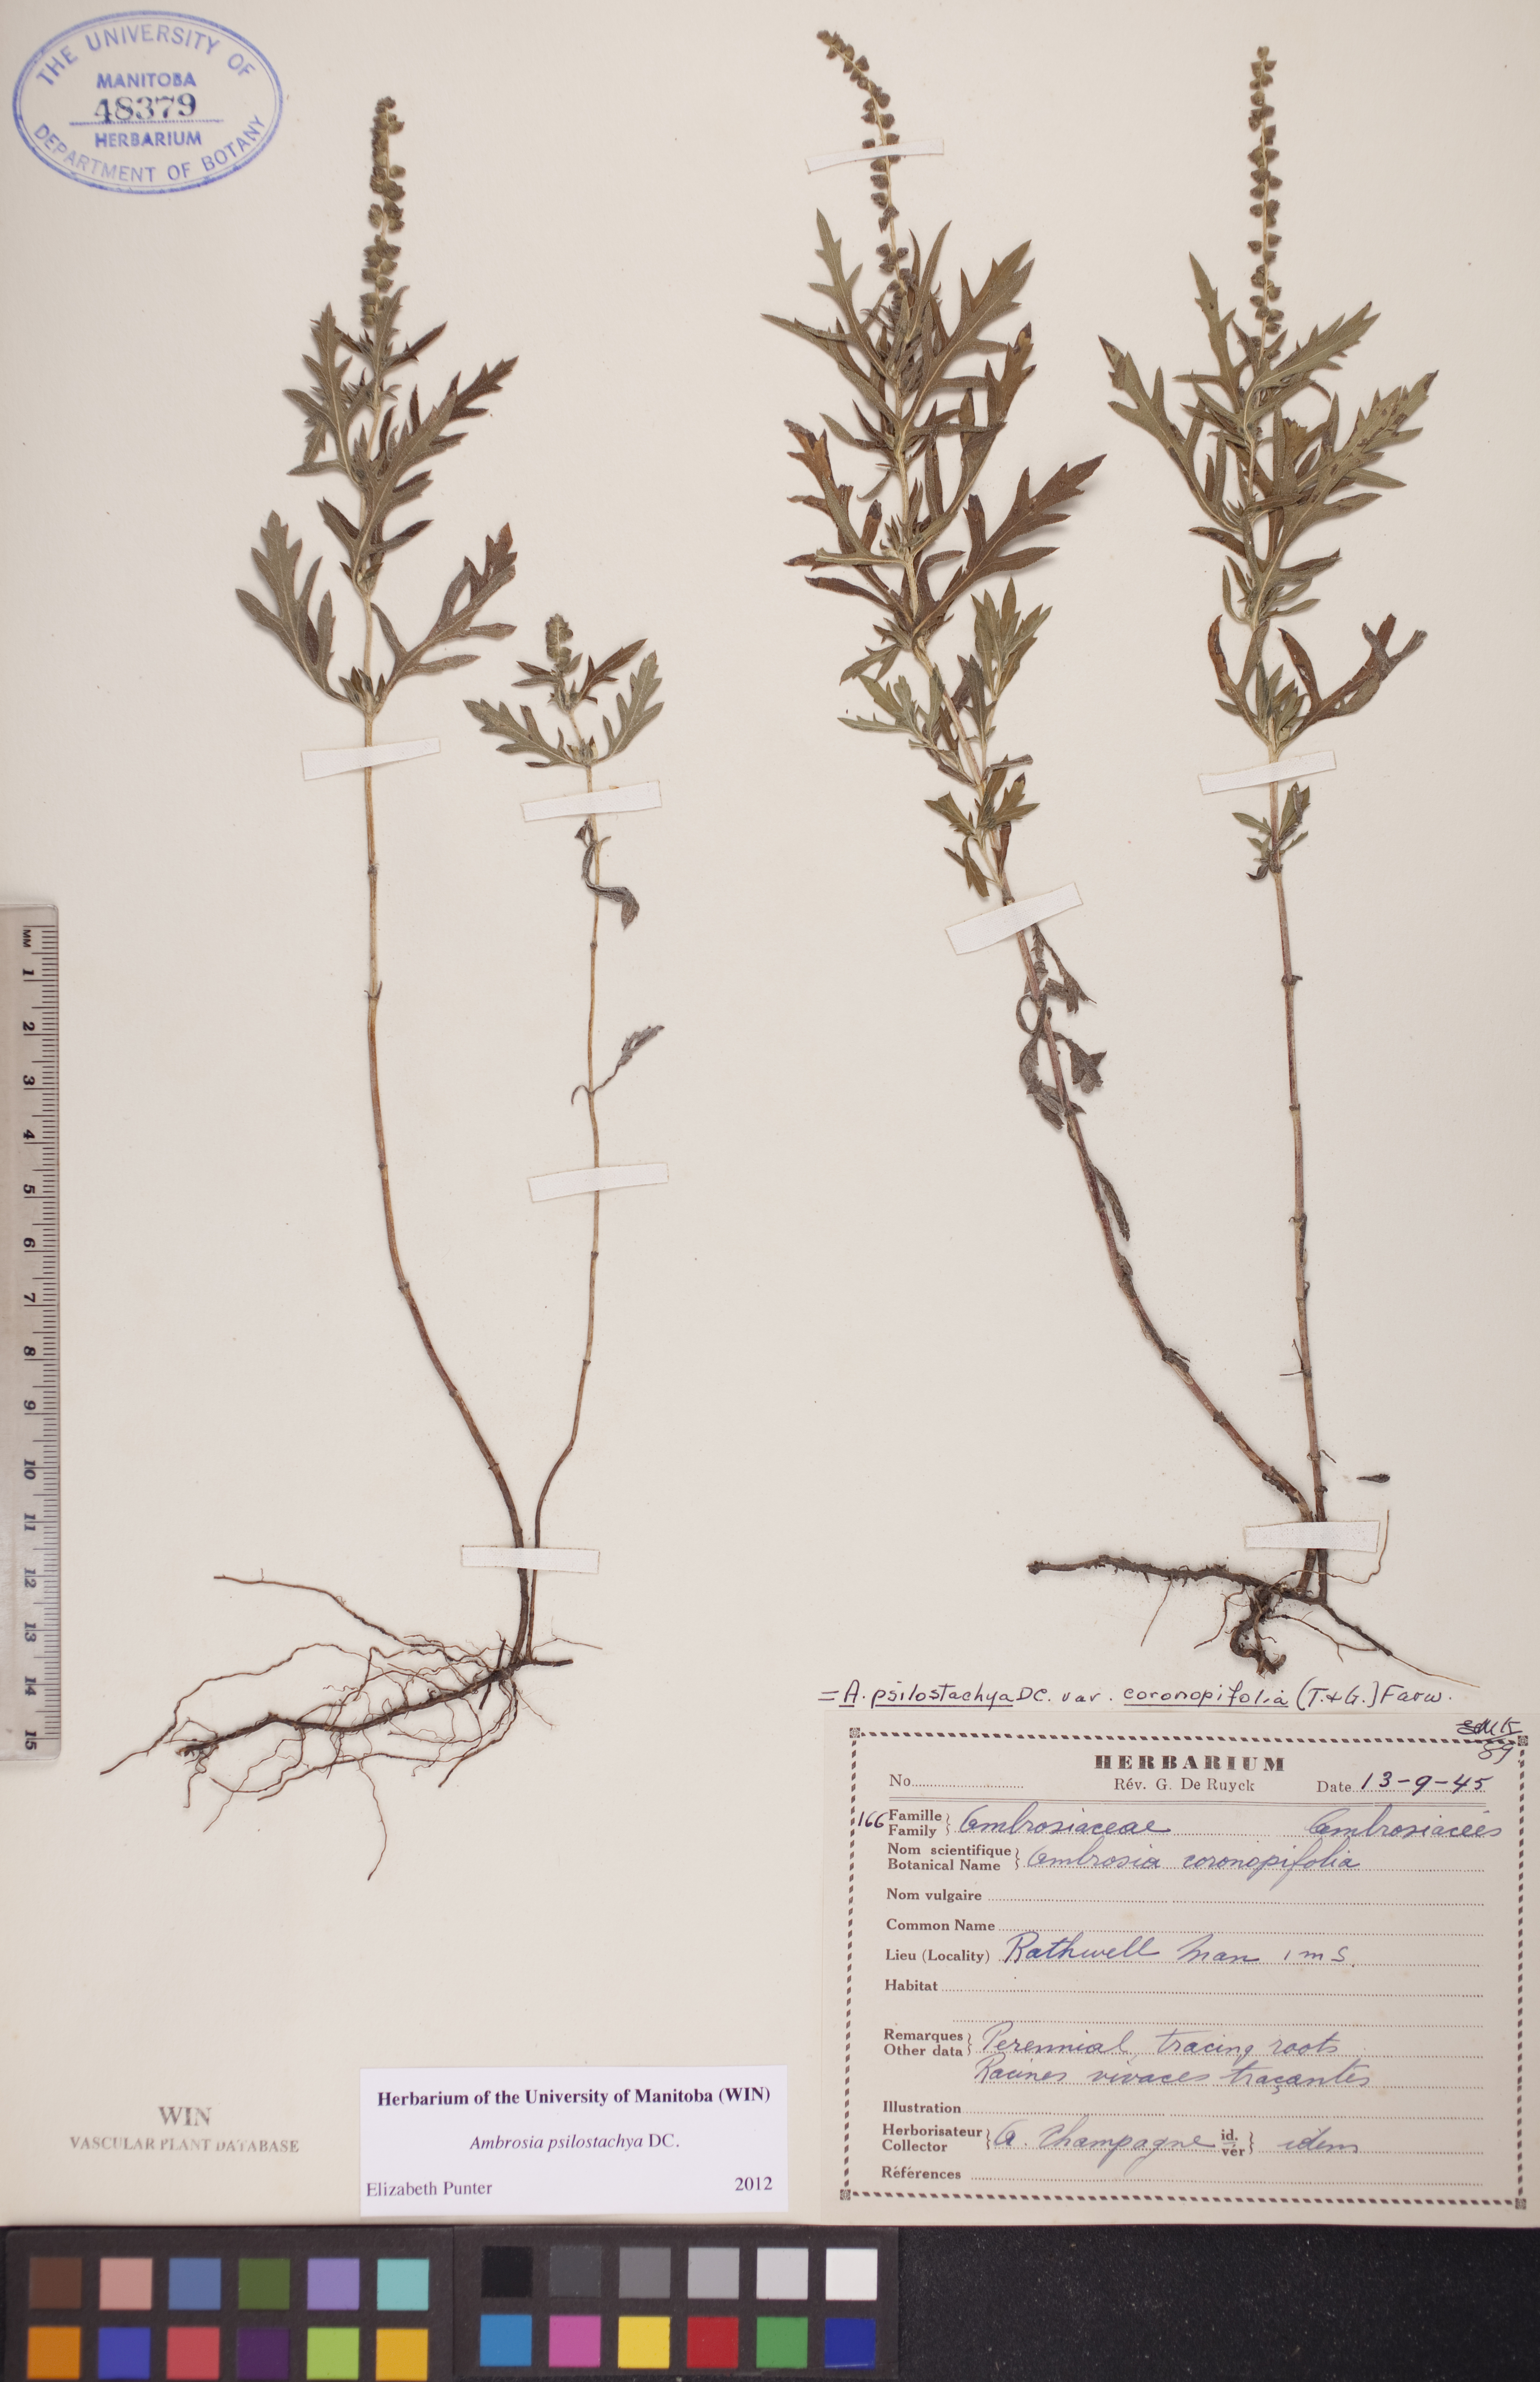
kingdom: Plantae
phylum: Tracheophyta
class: Magnoliopsida
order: Asterales
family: Asteraceae
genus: Ambrosia
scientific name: Ambrosia psilostachya
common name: Perennial ragweed
